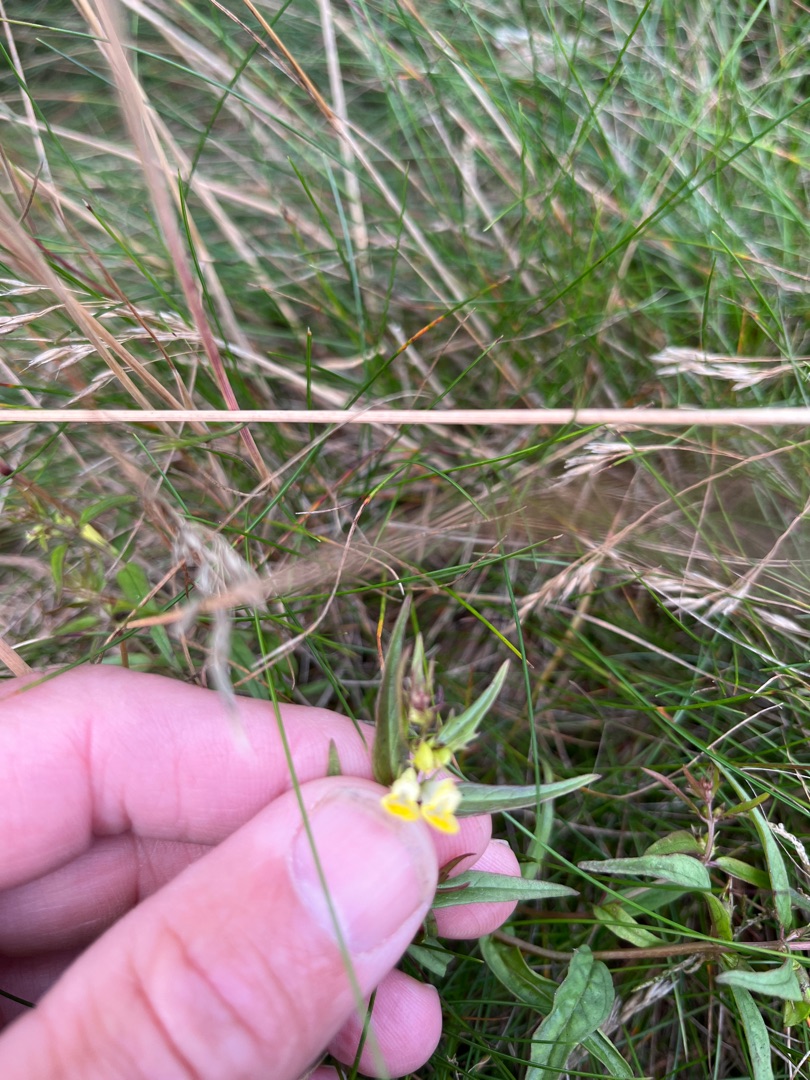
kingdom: Plantae
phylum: Tracheophyta
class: Magnoliopsida
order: Lamiales
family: Orobanchaceae
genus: Melampyrum
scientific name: Melampyrum pratense
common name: Almindelig kohvede
